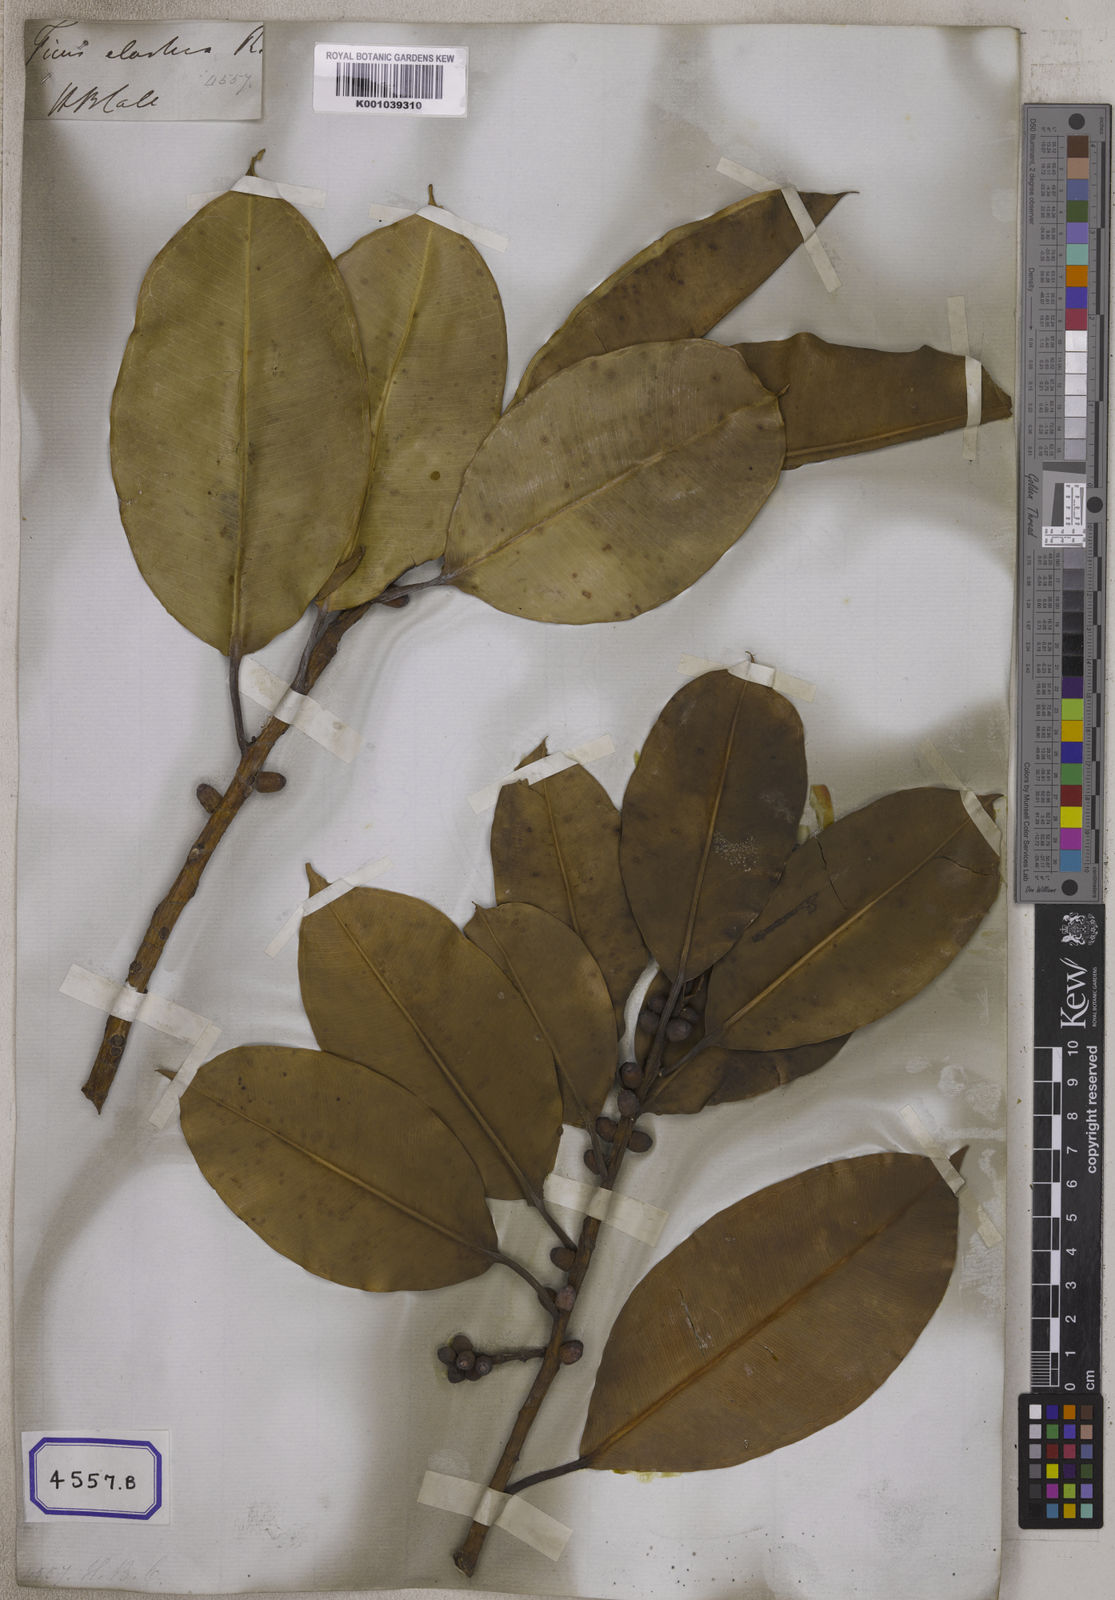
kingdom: Plantae
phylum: Tracheophyta
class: Magnoliopsida
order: Rosales
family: Moraceae
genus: Ficus
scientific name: Ficus
